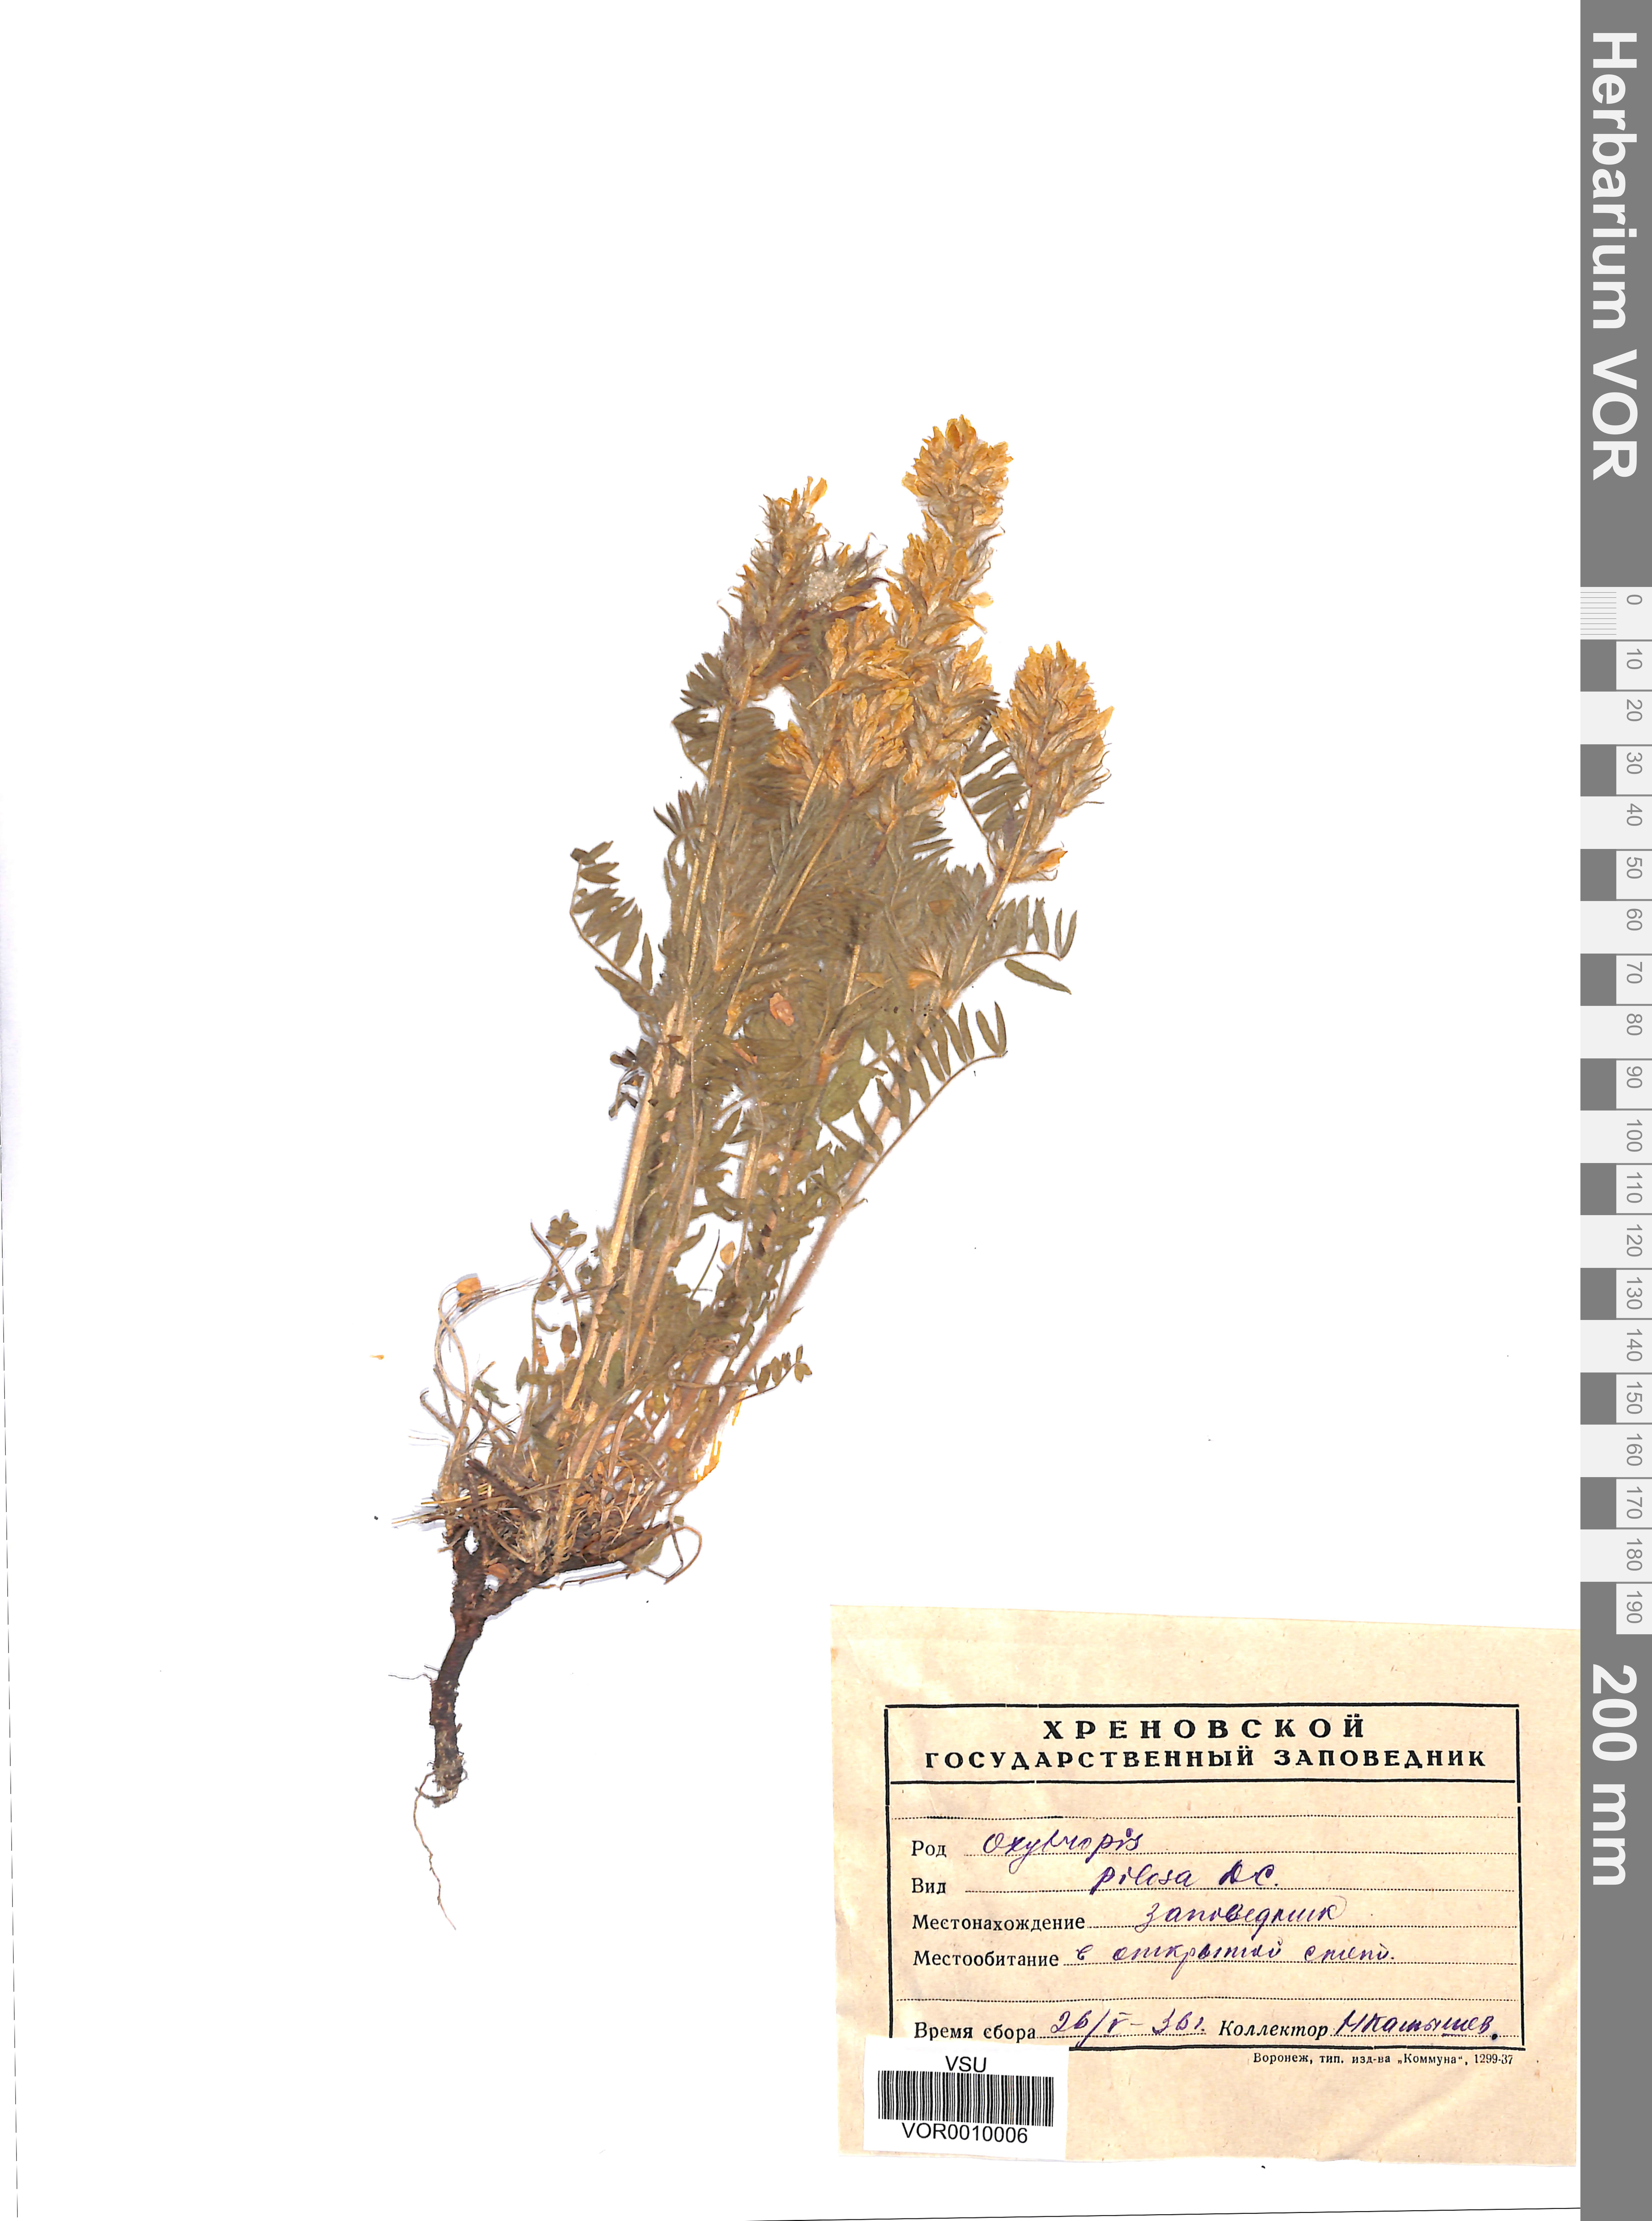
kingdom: Plantae
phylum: Tracheophyta
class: Magnoliopsida
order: Fabales
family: Fabaceae
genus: Oxytropis
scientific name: Oxytropis pilosa
